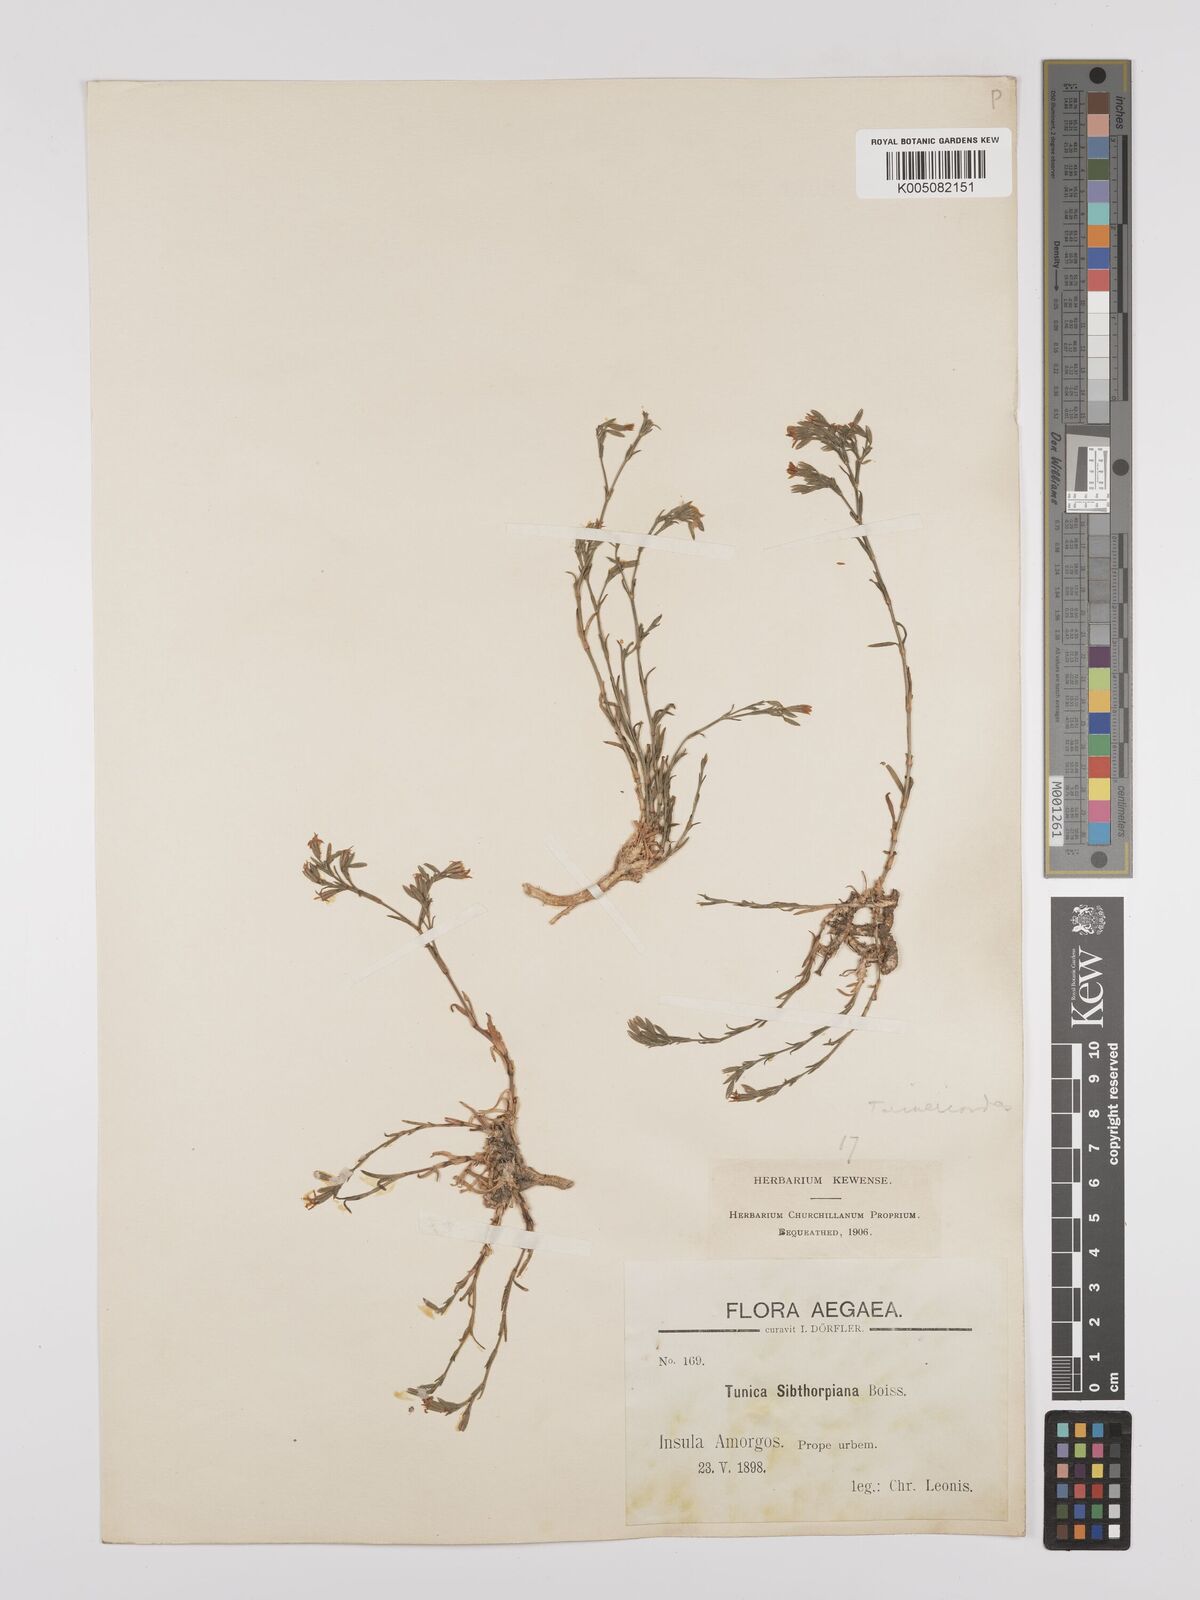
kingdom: Plantae
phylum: Tracheophyta
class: Magnoliopsida
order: Caryophyllales
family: Caryophyllaceae
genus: Dianthus
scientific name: Dianthus tunicoides
